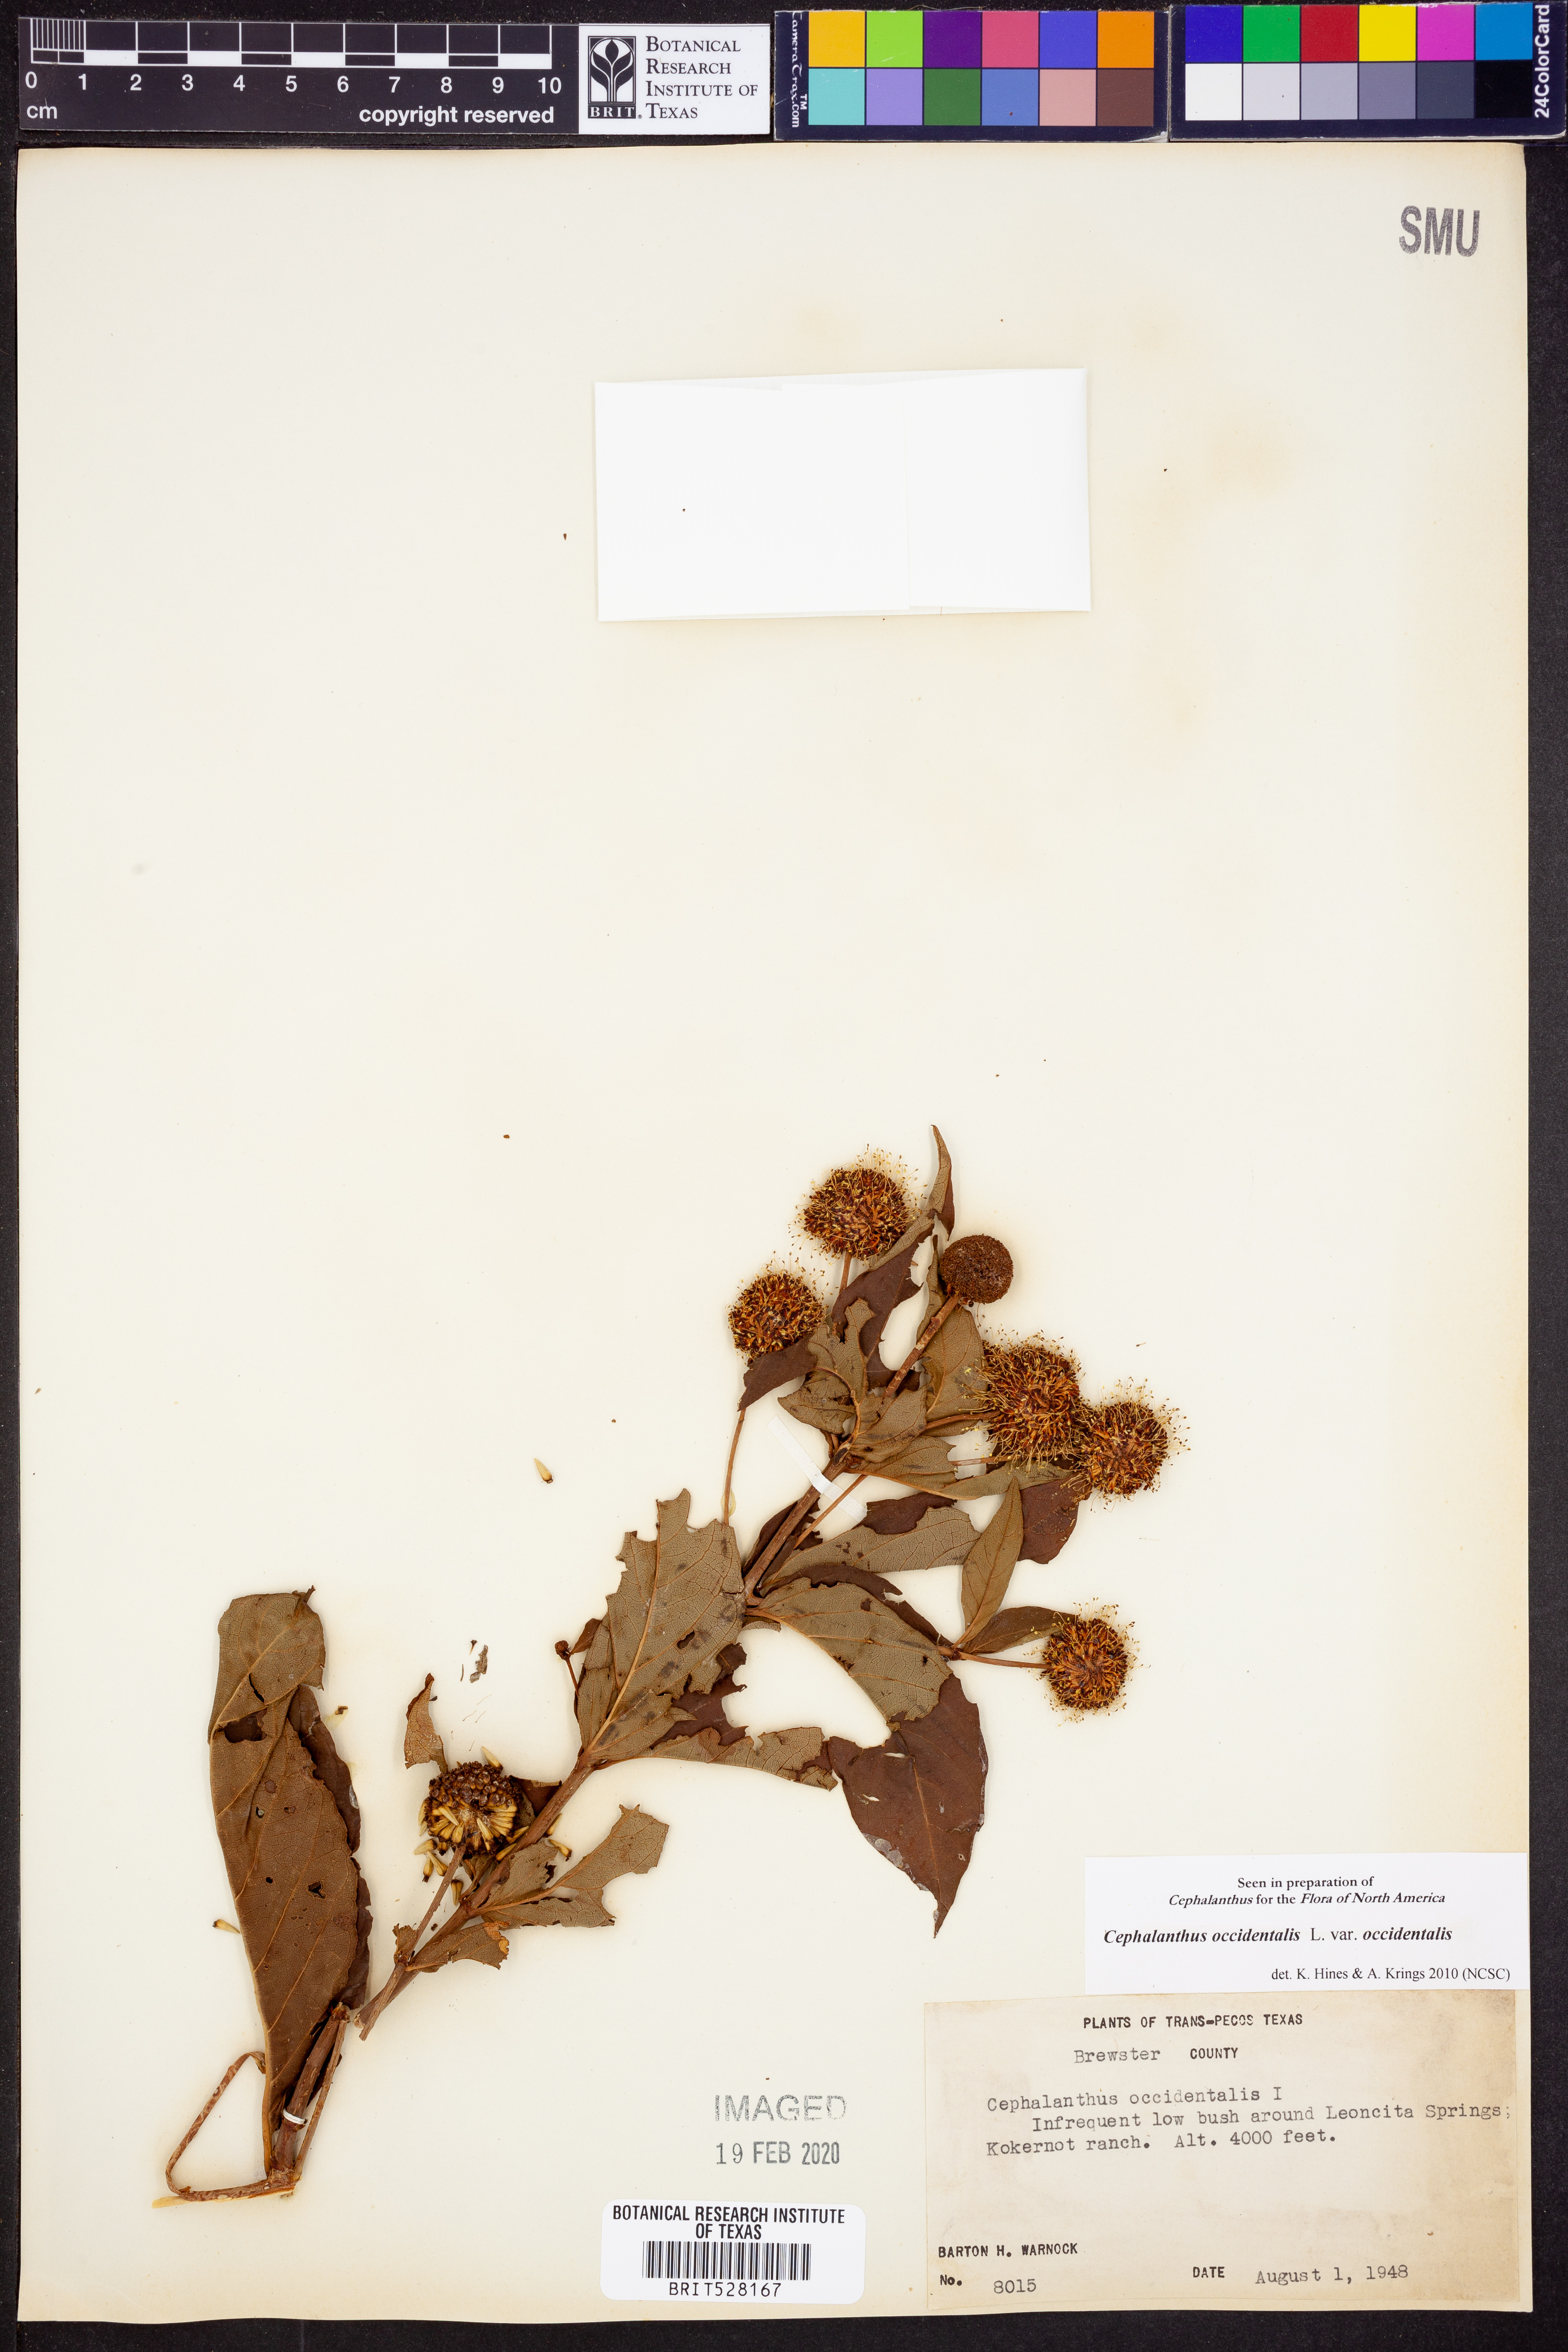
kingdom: Plantae
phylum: Tracheophyta
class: Magnoliopsida
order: Gentianales
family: Rubiaceae
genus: Cephalanthus
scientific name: Cephalanthus occidentalis
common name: Button-willow
